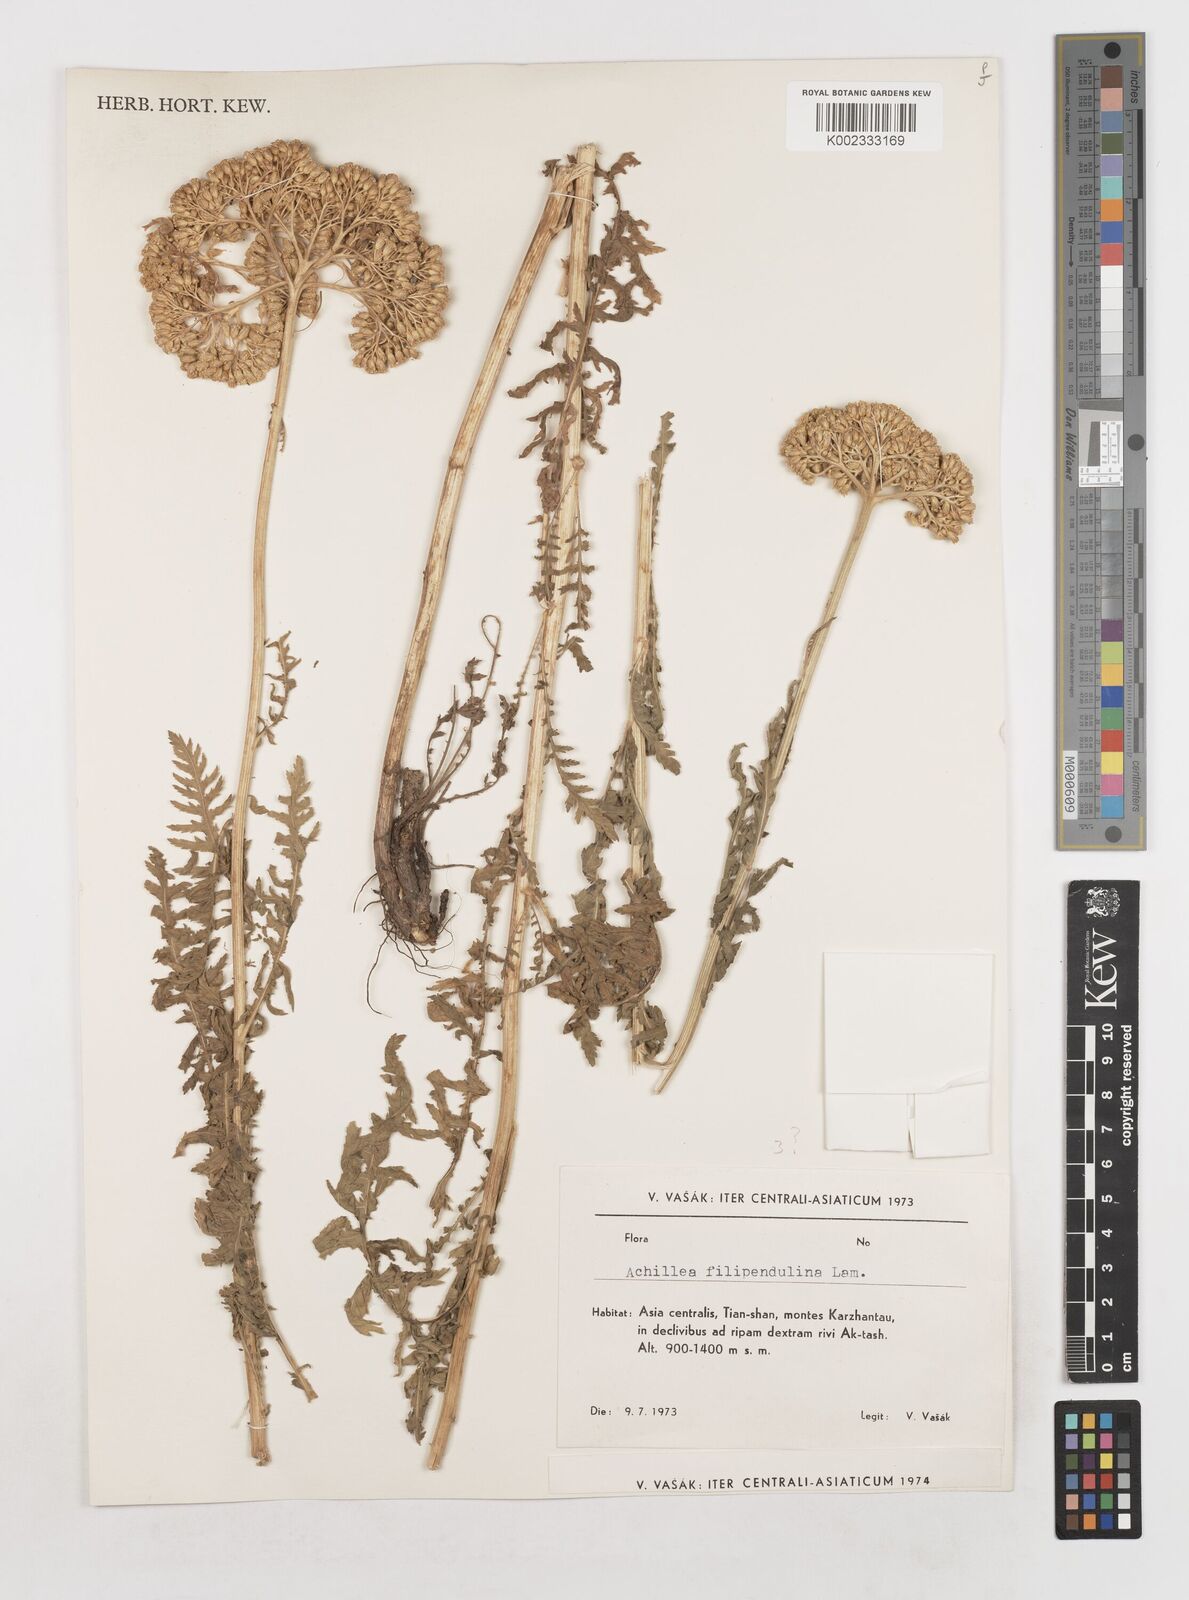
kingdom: Plantae
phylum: Tracheophyta
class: Magnoliopsida
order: Asterales
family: Asteraceae
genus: Achillea
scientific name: Achillea filipendulina
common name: Fernleaf yarrow
